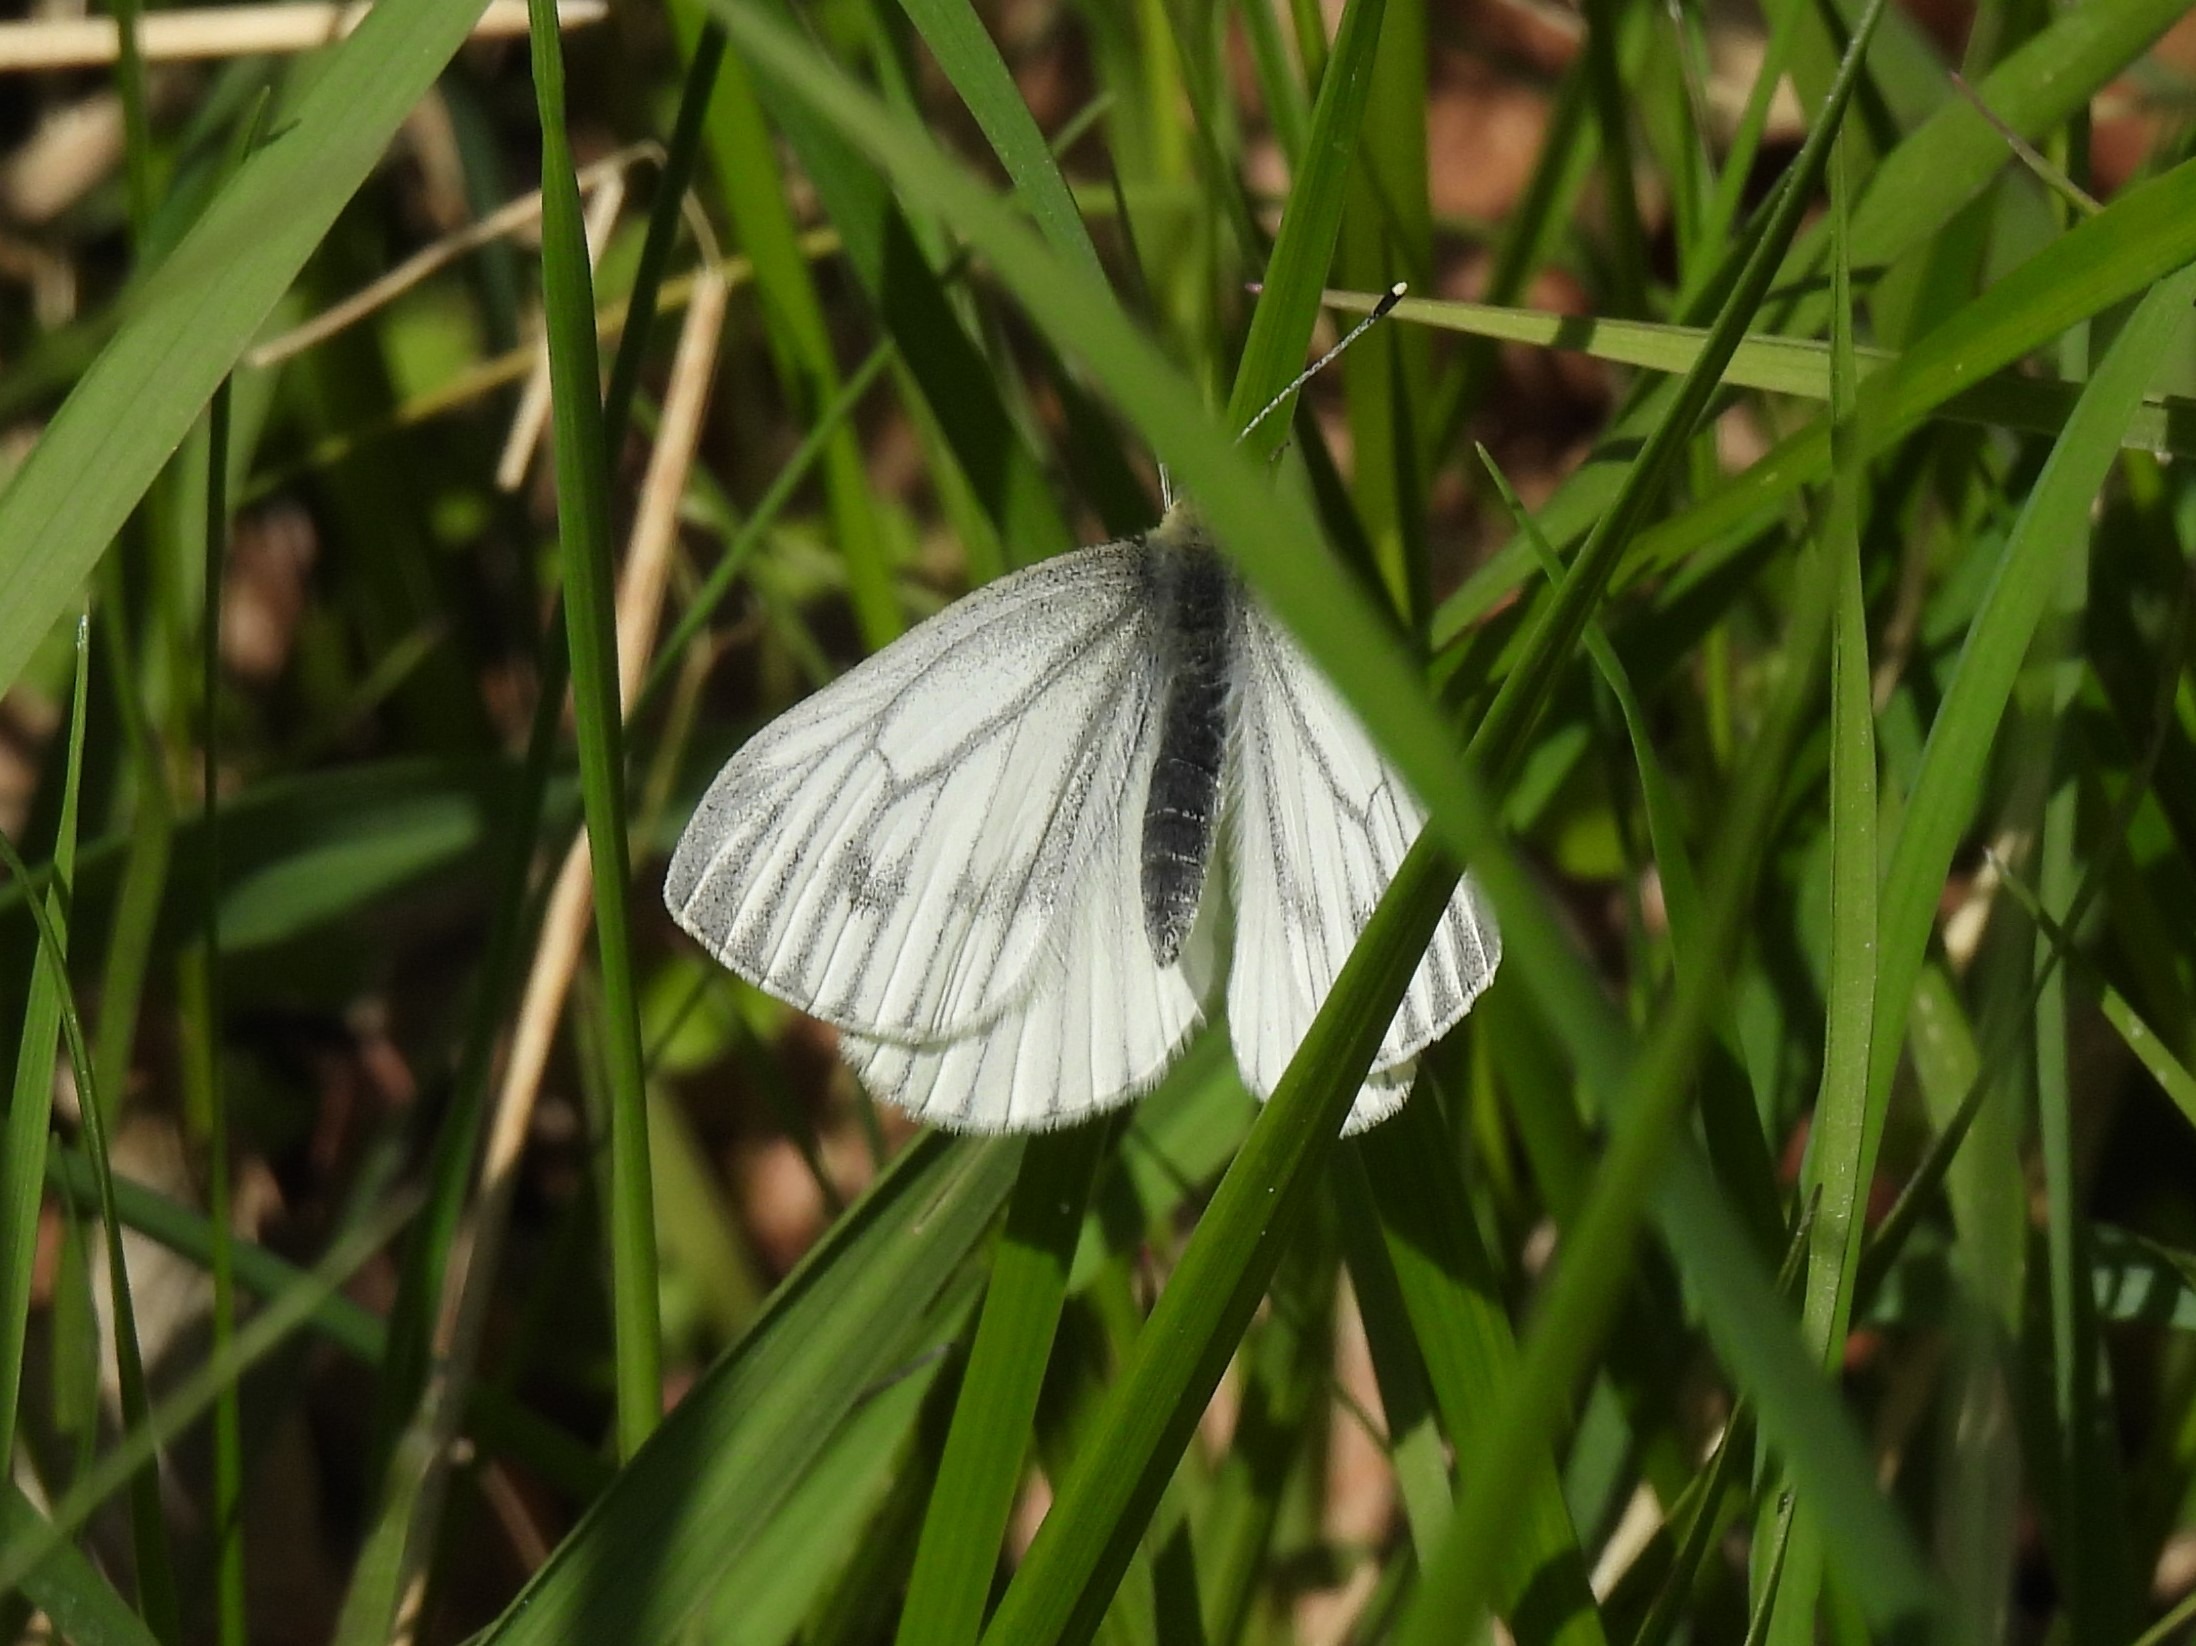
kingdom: Animalia
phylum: Arthropoda
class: Insecta
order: Lepidoptera
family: Pieridae
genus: Pieris
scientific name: Pieris napi
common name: Grønåret kålsommerfugl
